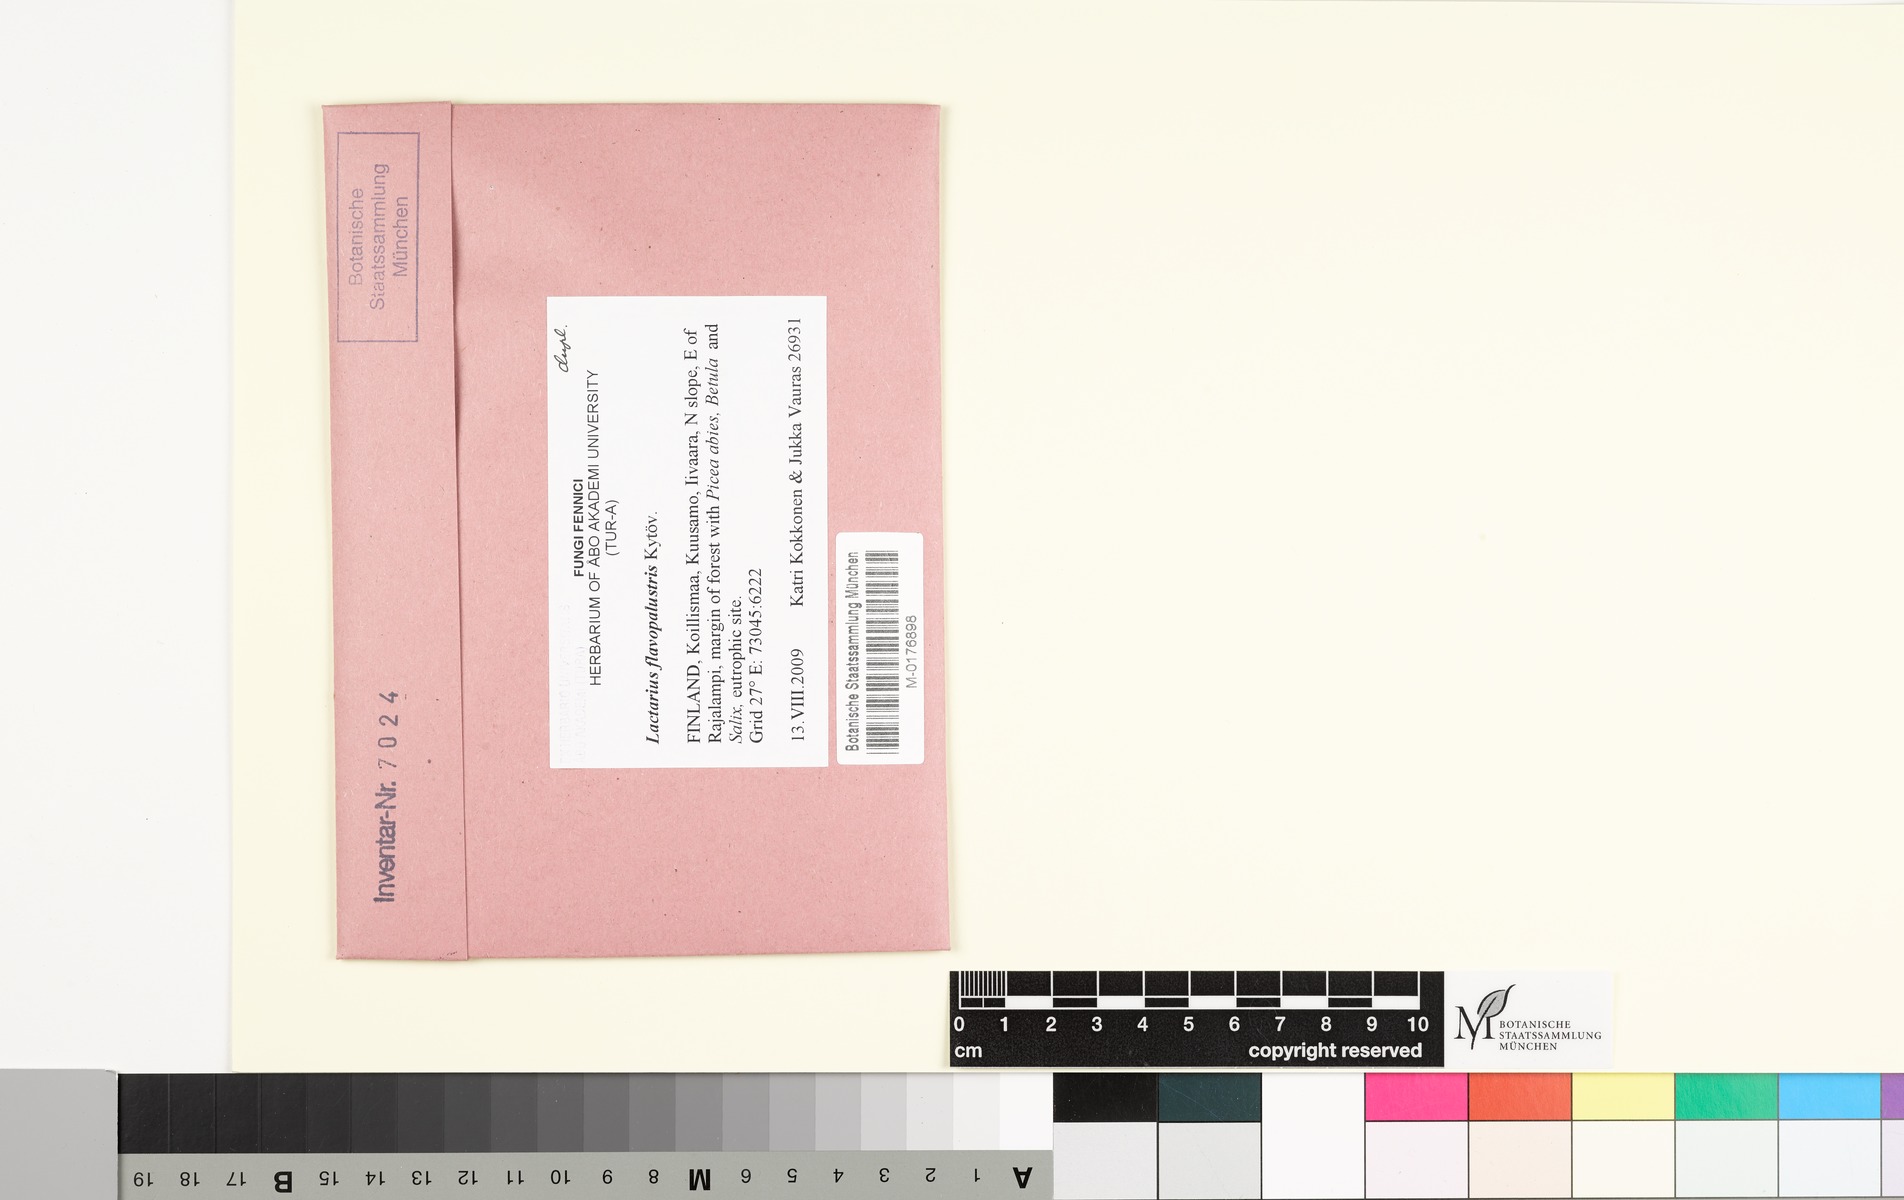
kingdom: Fungi
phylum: Basidiomycota
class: Agaricomycetes
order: Russulales
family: Russulaceae
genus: Lactarius
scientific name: Lactarius flavopalustris
